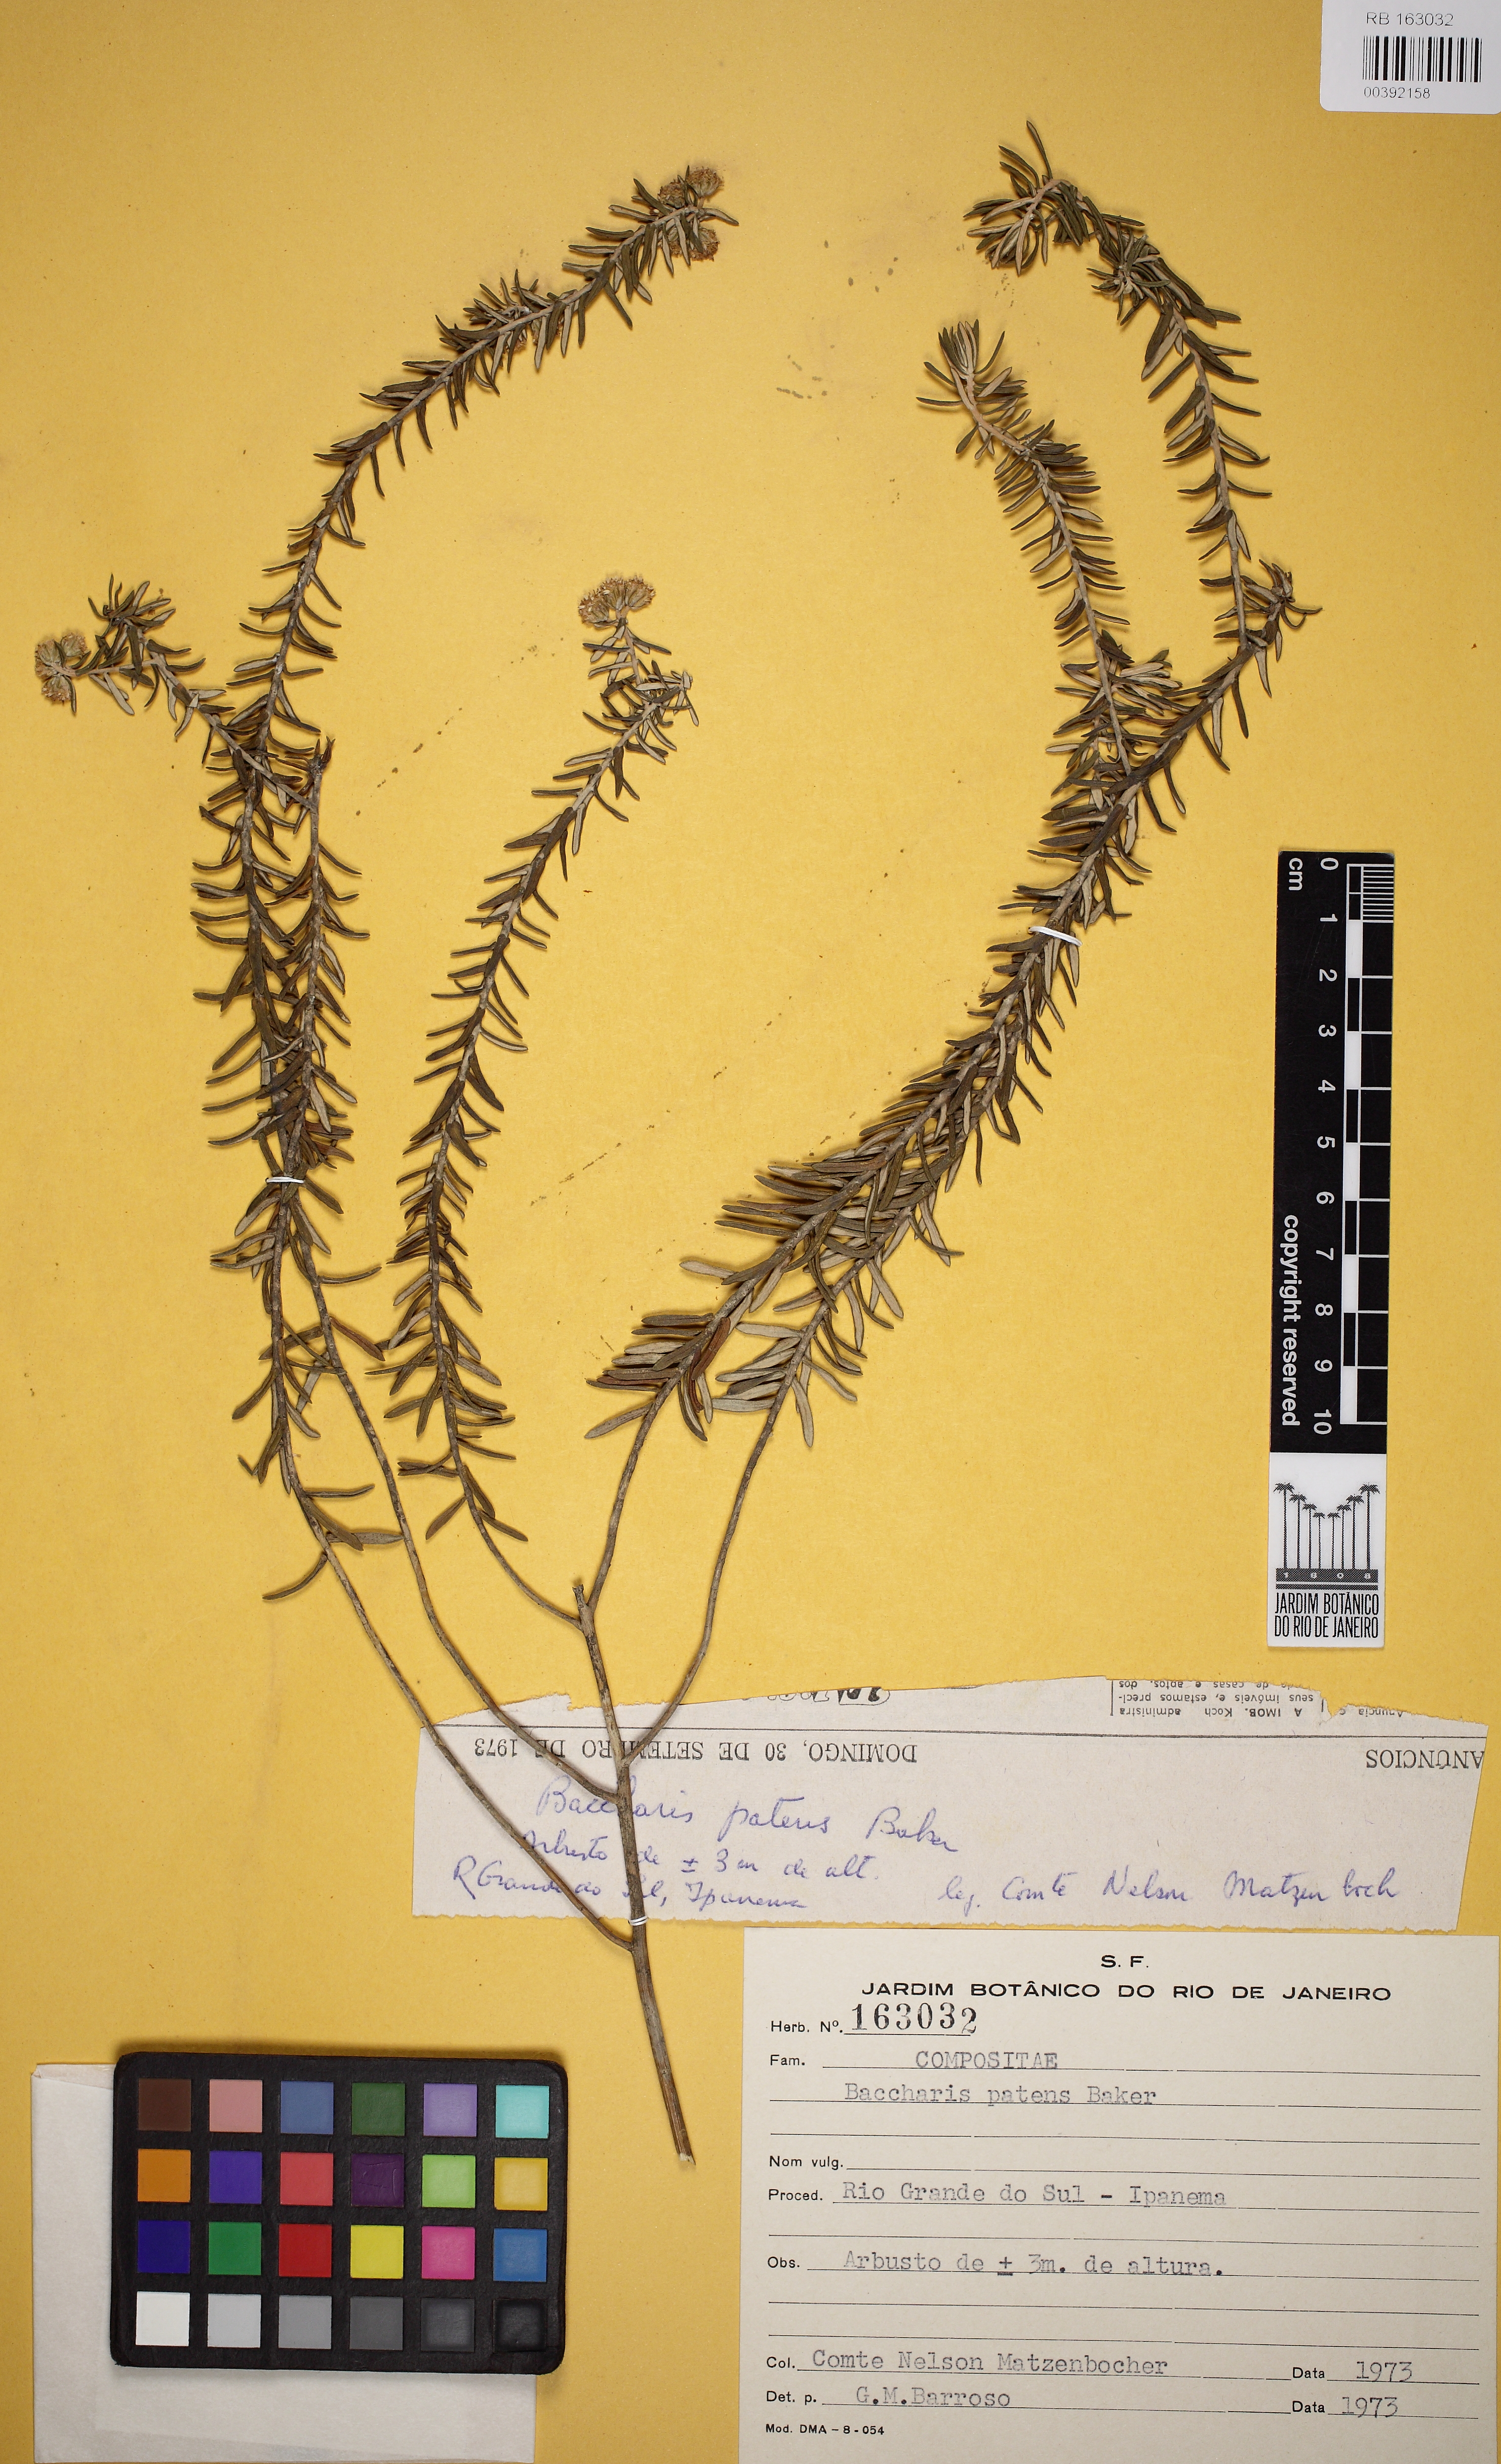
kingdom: Plantae
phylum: Tracheophyta
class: Magnoliopsida
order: Asterales
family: Asteraceae
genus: Baccharis
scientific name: Baccharis patens
